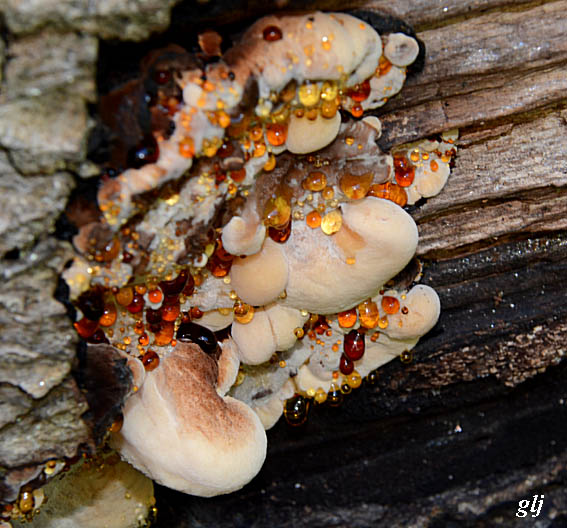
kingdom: Fungi
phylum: Basidiomycota
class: Agaricomycetes
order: Polyporales
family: Ischnodermataceae
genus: Ischnoderma
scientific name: Ischnoderma resinosum
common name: løv-tjæreporesvamp
